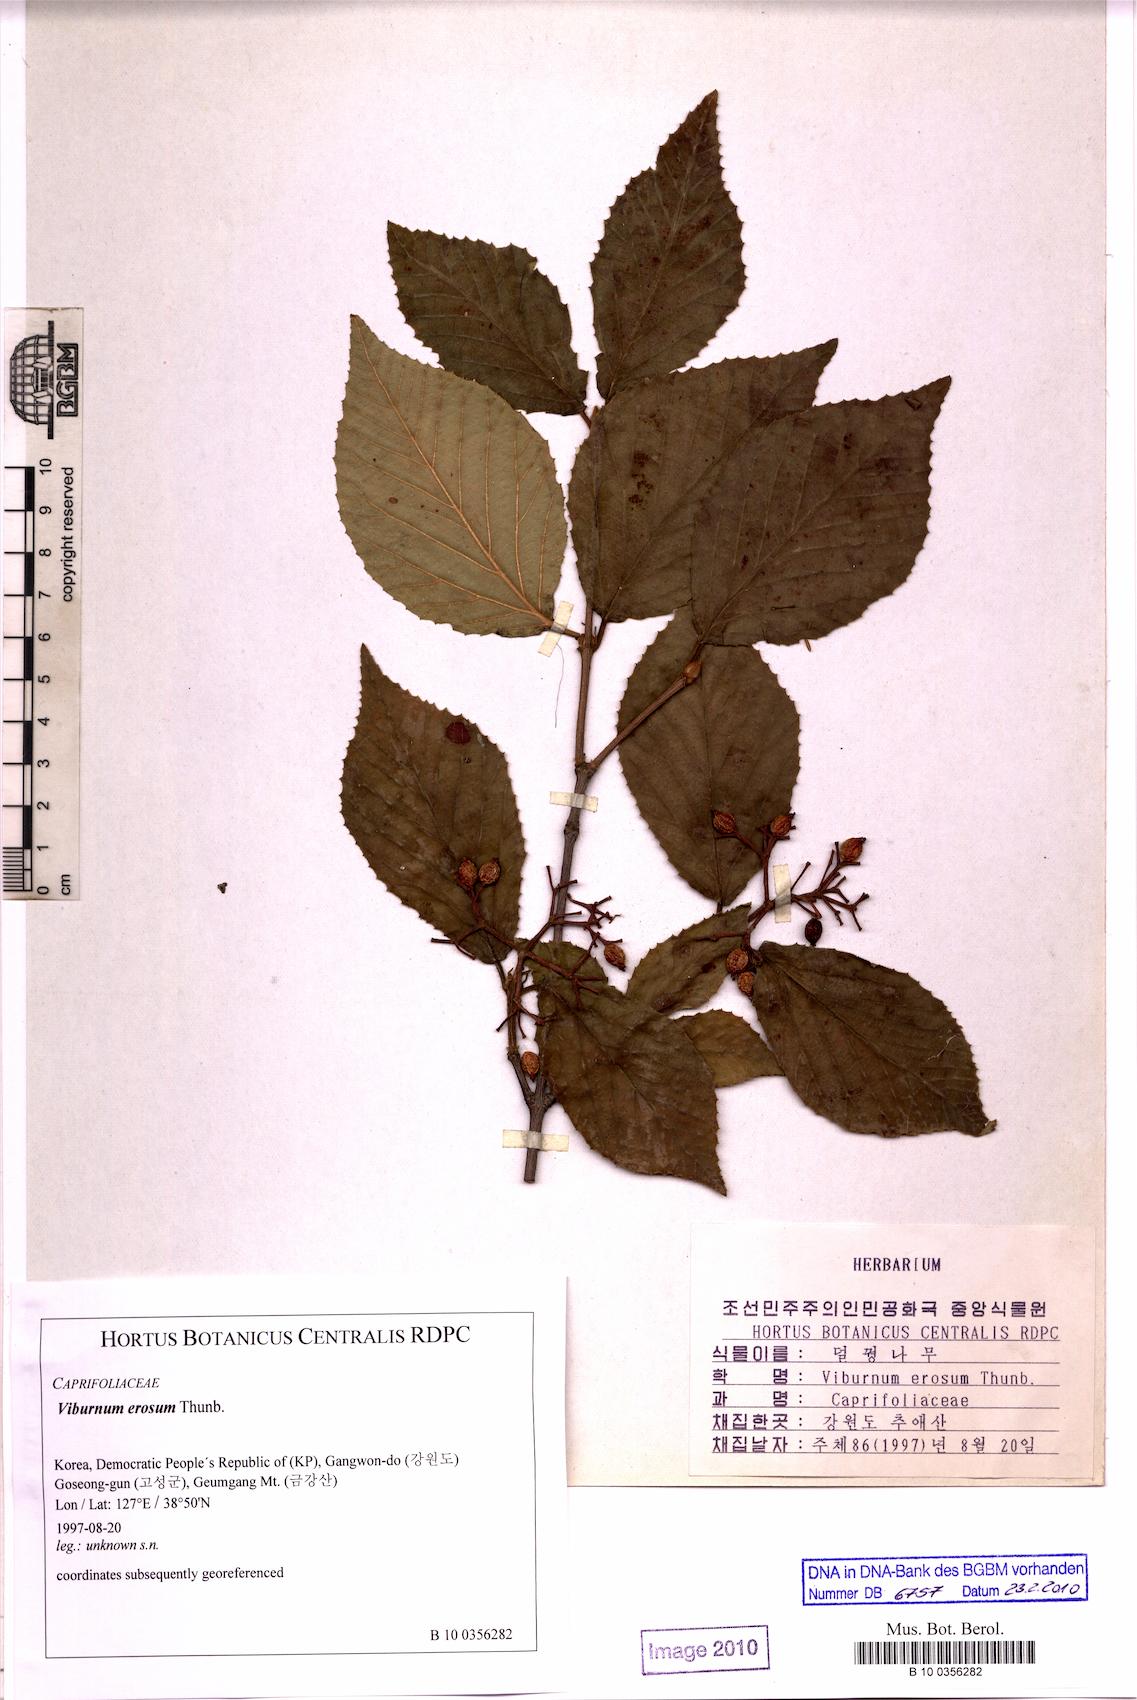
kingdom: Plantae
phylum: Tracheophyta
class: Magnoliopsida
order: Dipsacales
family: Viburnaceae
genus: Viburnum
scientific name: Viburnum erosum
